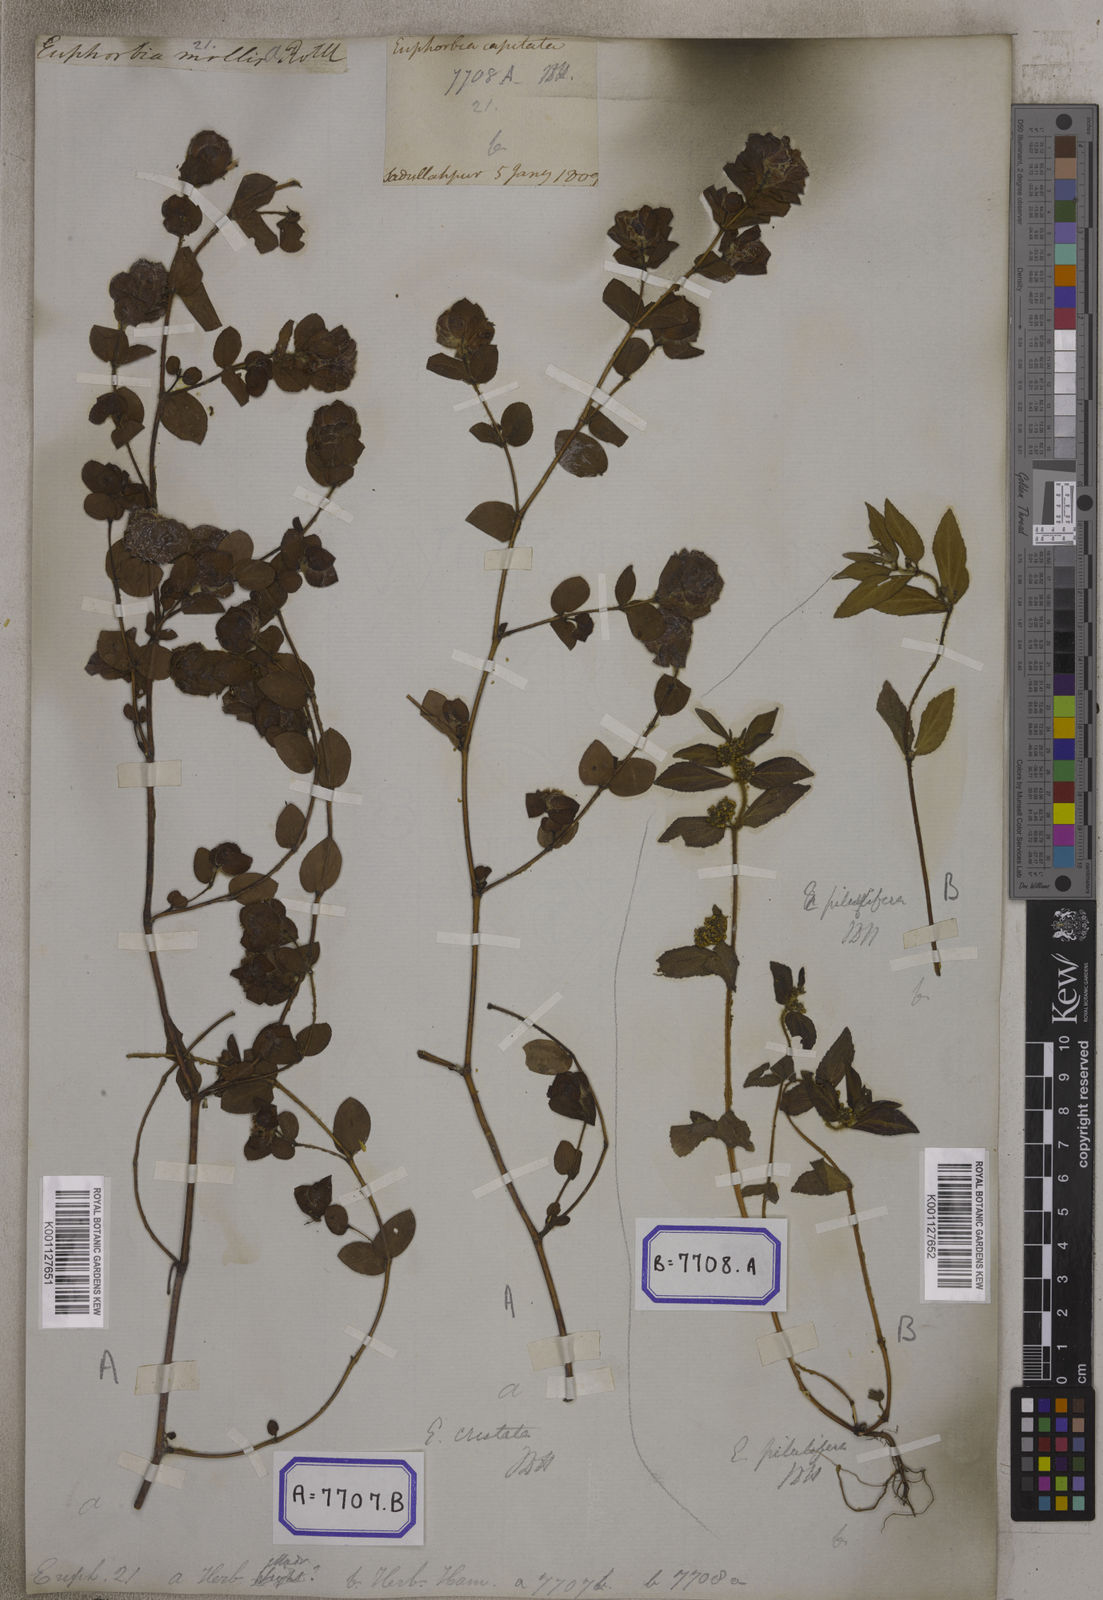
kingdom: Plantae
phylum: Tracheophyta
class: Magnoliopsida
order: Malpighiales
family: Euphorbiaceae
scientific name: Euphorbiaceae
